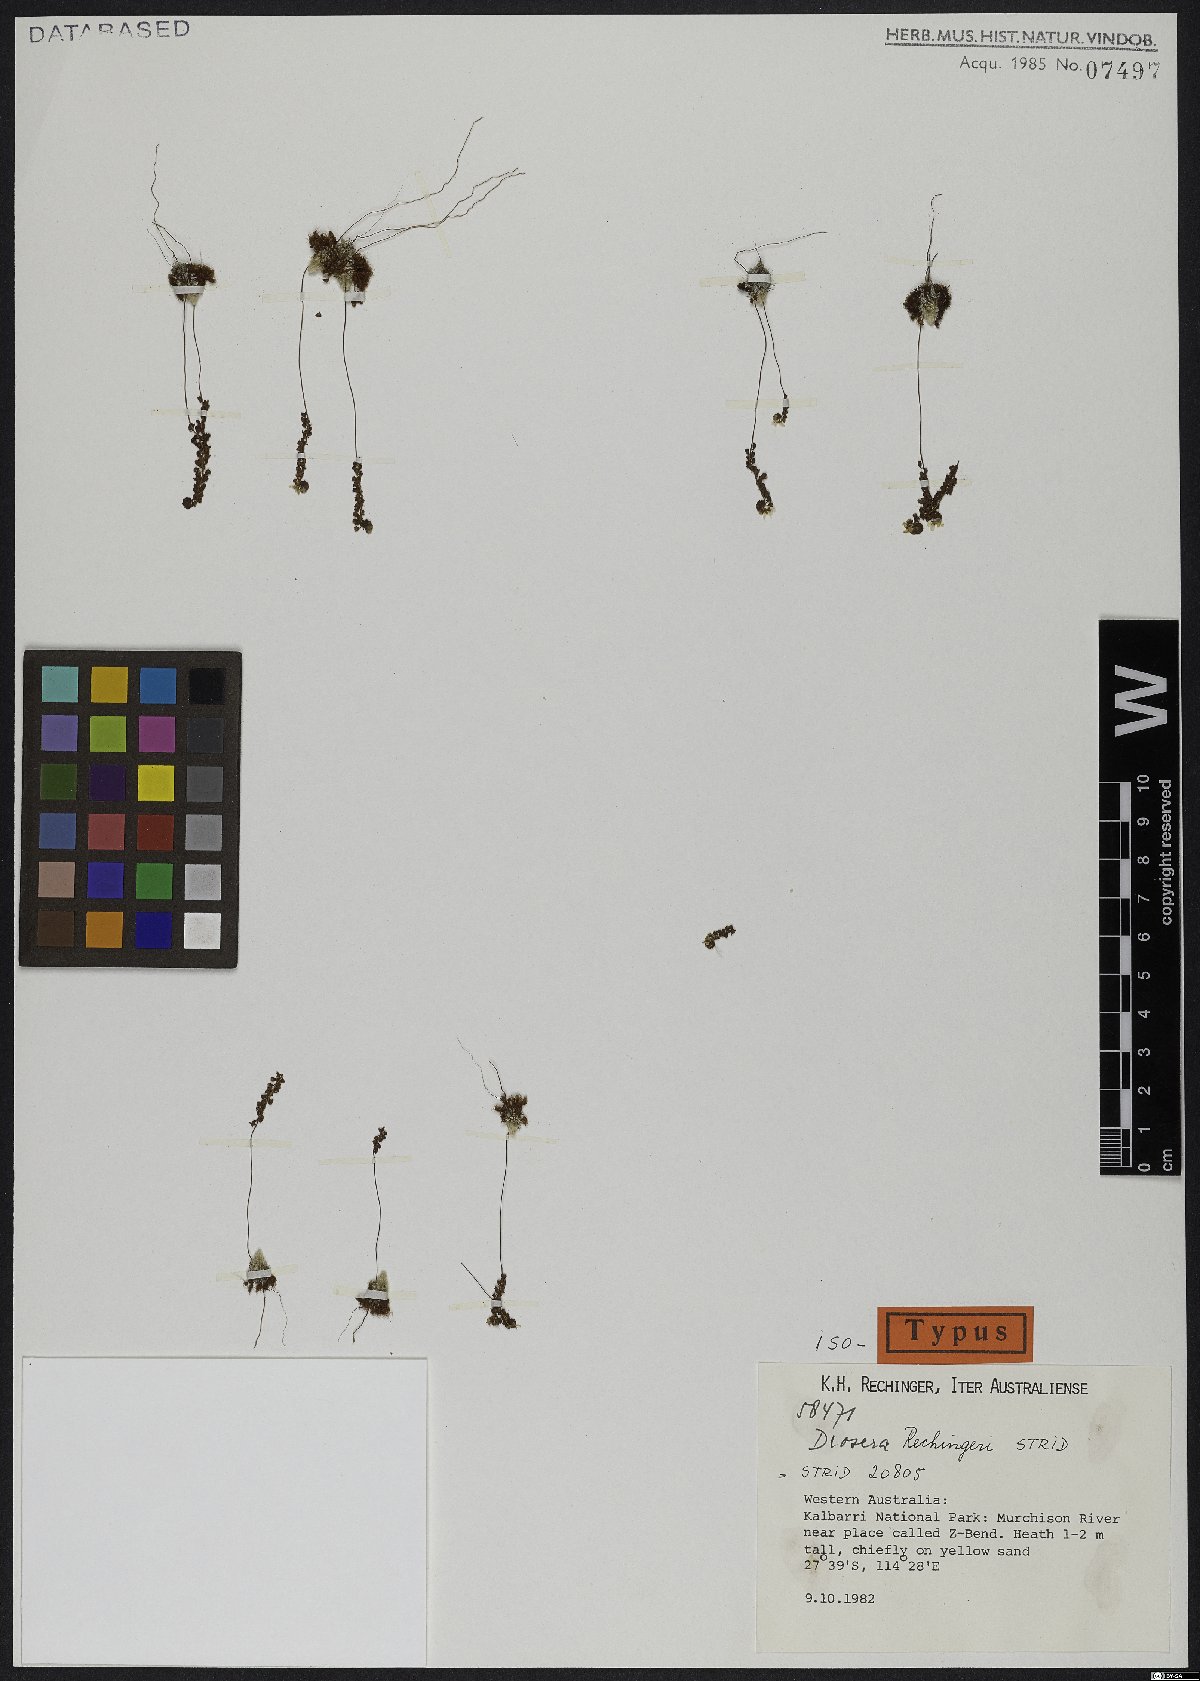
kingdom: Plantae
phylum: Tracheophyta
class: Magnoliopsida
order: Caryophyllales
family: Droseraceae
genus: Drosera
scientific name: Drosera rechingeri
